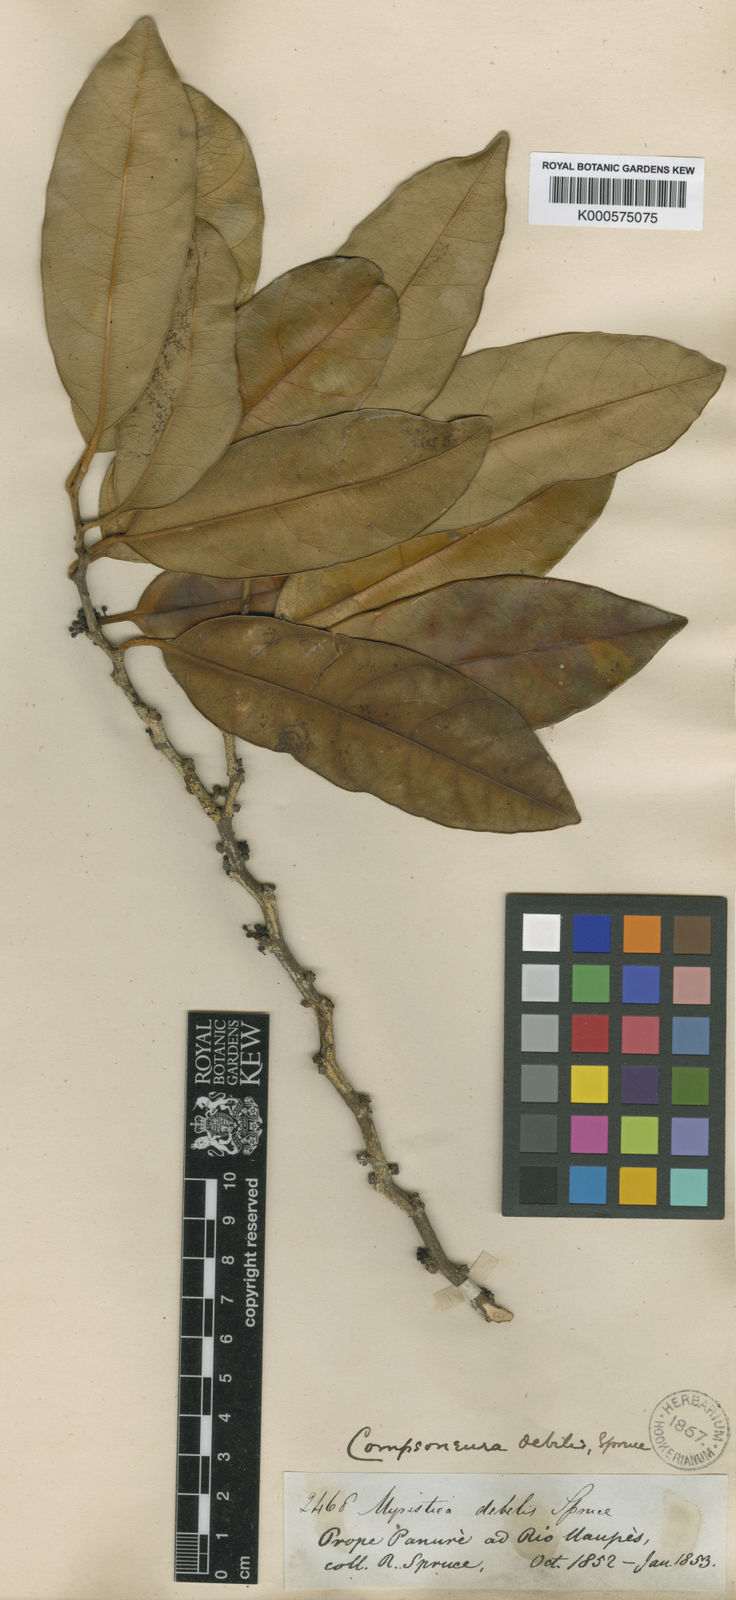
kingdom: Plantae
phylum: Tracheophyta
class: Magnoliopsida
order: Magnoliales
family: Myristicaceae
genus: Compsoneura
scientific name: Compsoneura debilis
